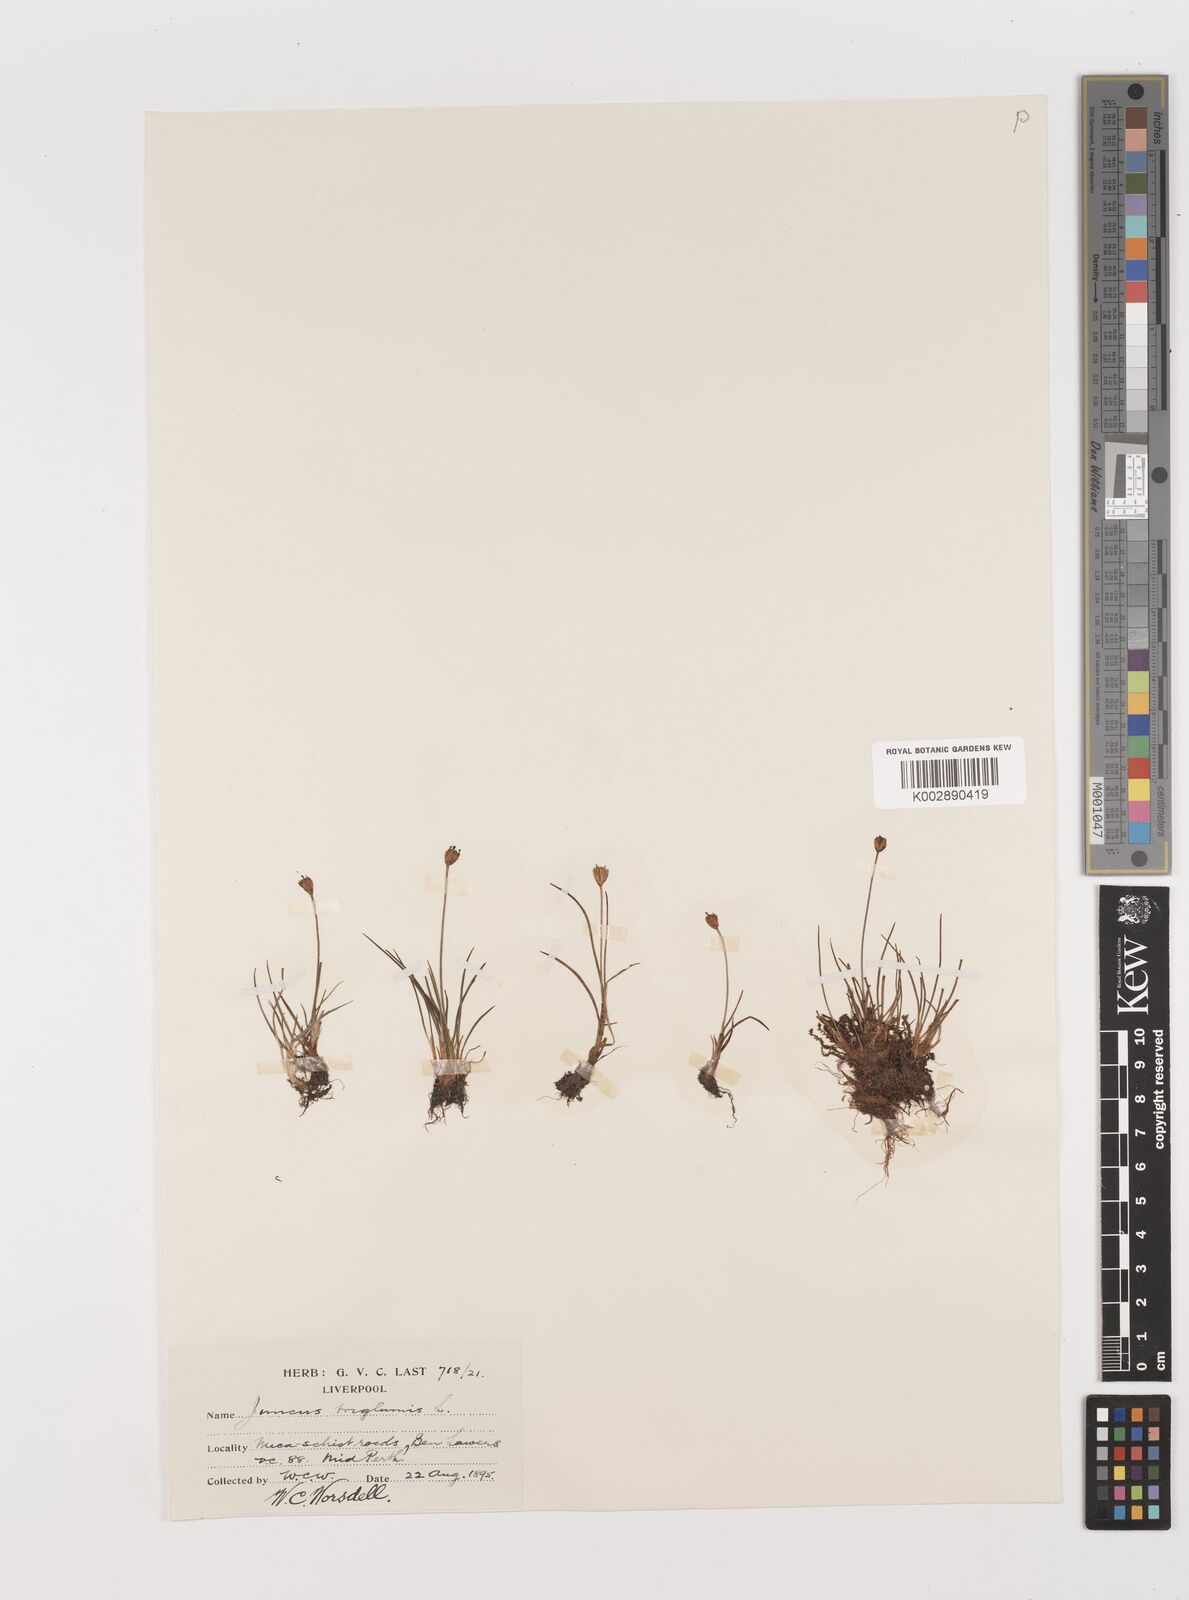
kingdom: Plantae
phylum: Tracheophyta
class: Liliopsida
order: Poales
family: Juncaceae
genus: Juncus
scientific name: Juncus triglumis
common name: Three-flowered rush
